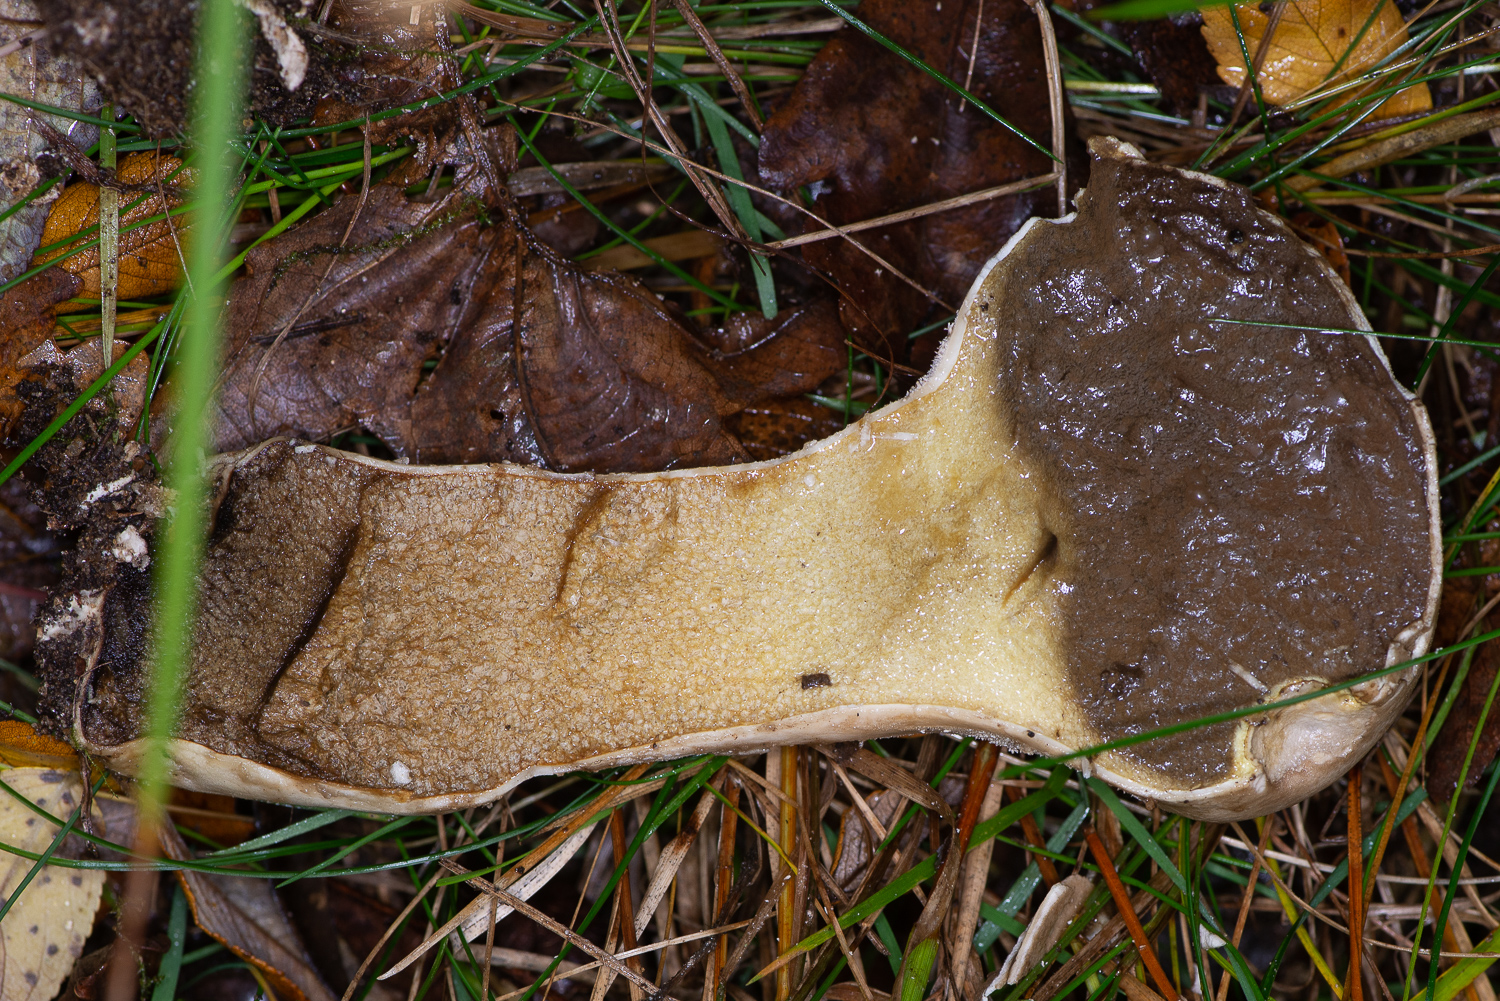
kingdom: Fungi
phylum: Basidiomycota
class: Agaricomycetes
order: Agaricales
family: Lycoperdaceae
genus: Lycoperdon
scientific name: Lycoperdon excipuliforme
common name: højstokket støvbold
